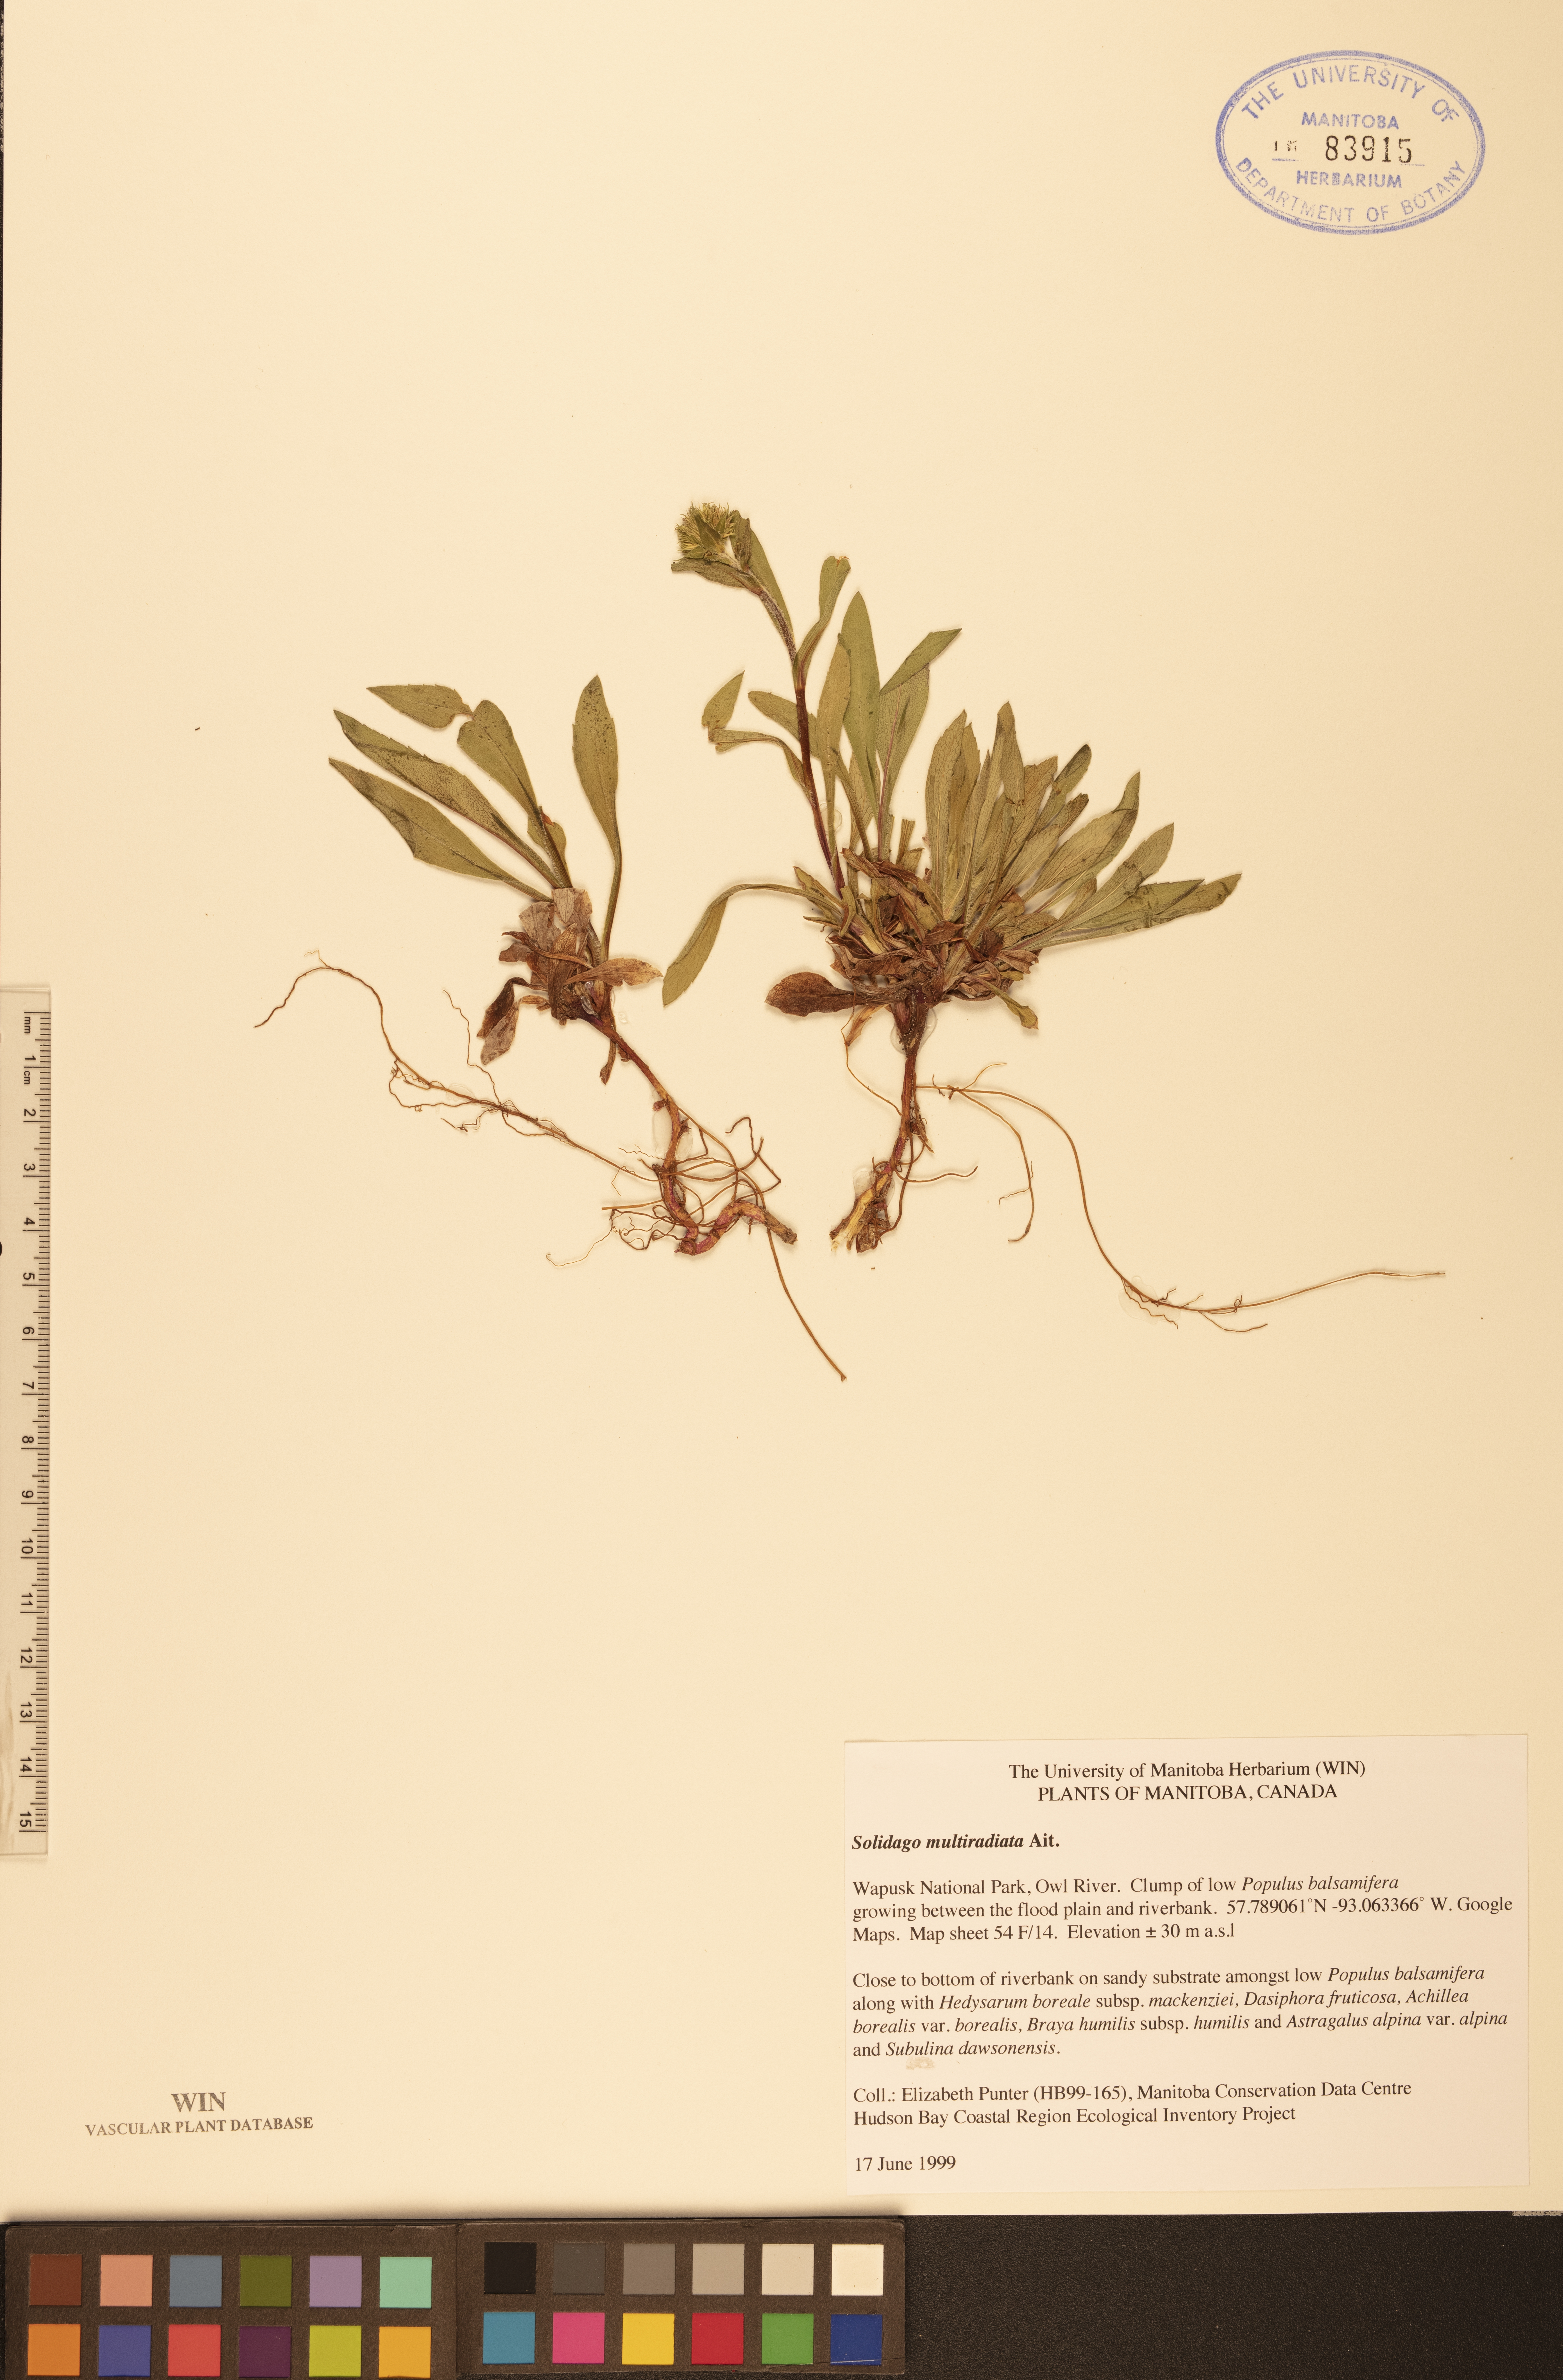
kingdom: Plantae
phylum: Tracheophyta
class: Magnoliopsida
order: Asterales
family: Asteraceae
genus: Solidago
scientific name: Solidago multiradiata
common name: Northern goldenrod
